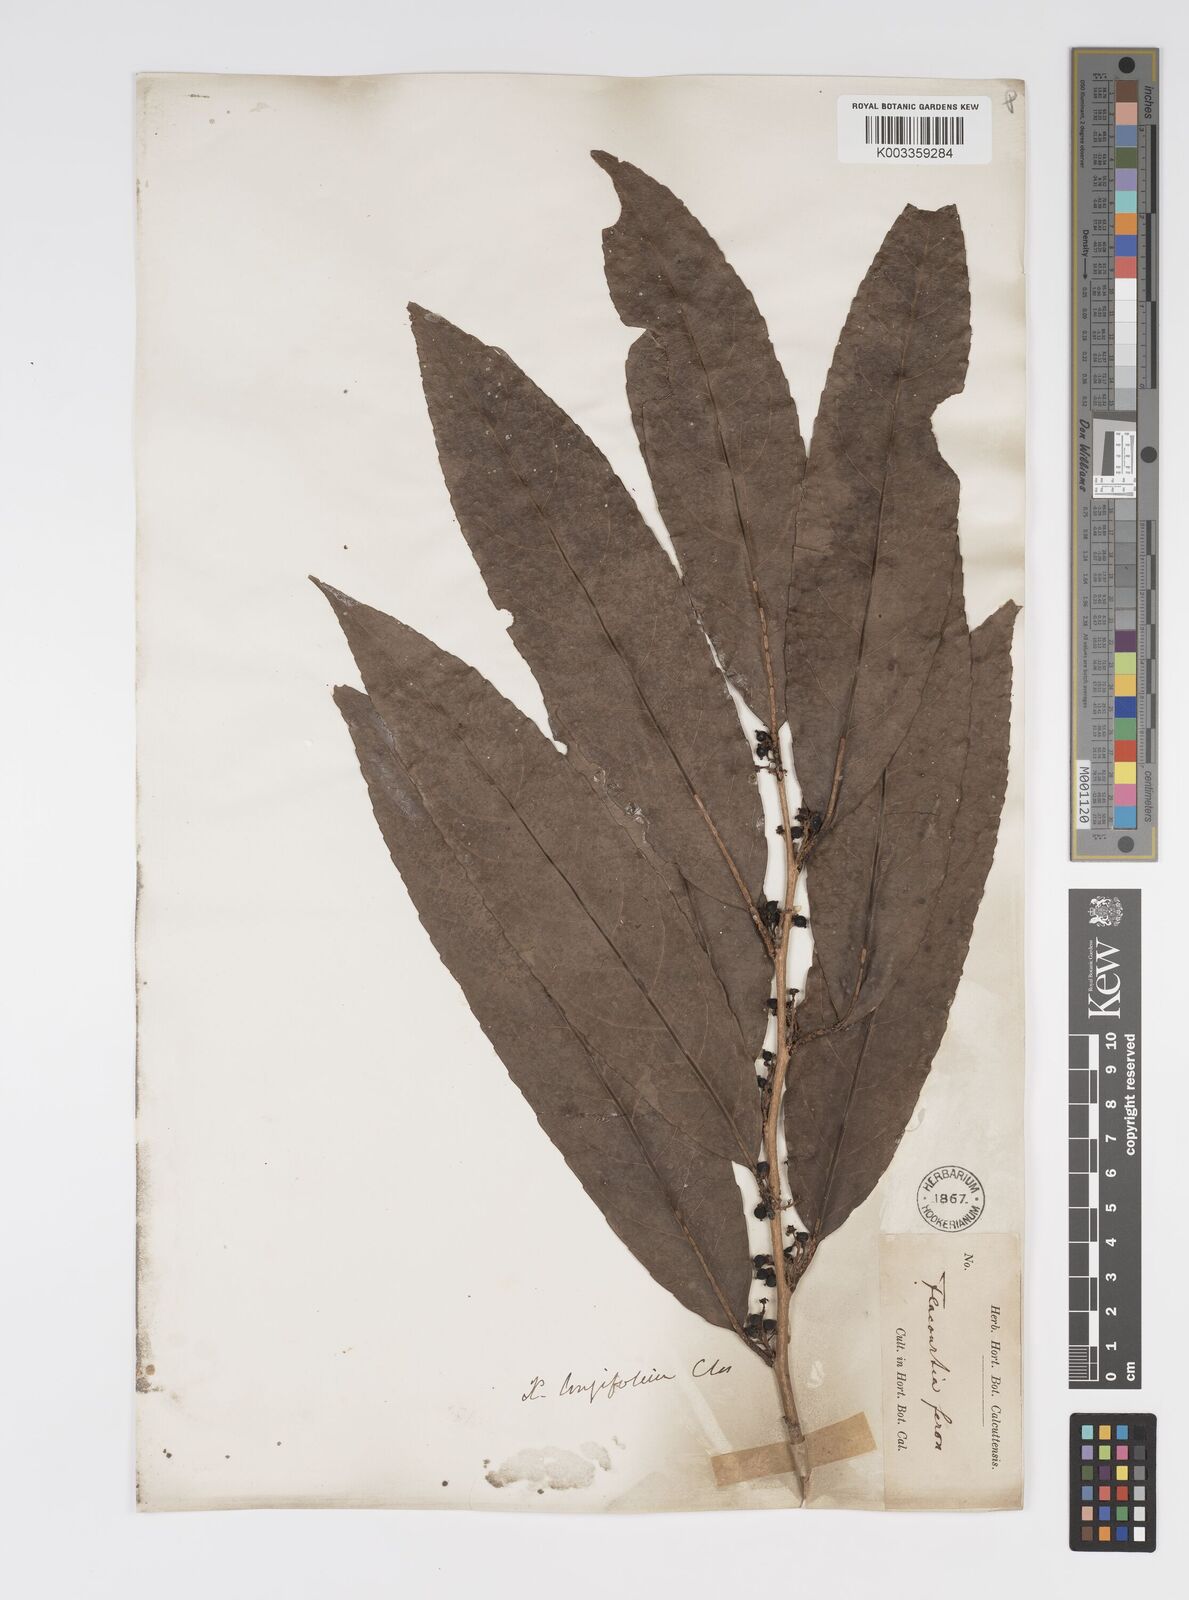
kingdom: Plantae
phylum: Tracheophyta
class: Magnoliopsida
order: Malpighiales
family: Salicaceae
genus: Xylosma
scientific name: Xylosma longifolia
